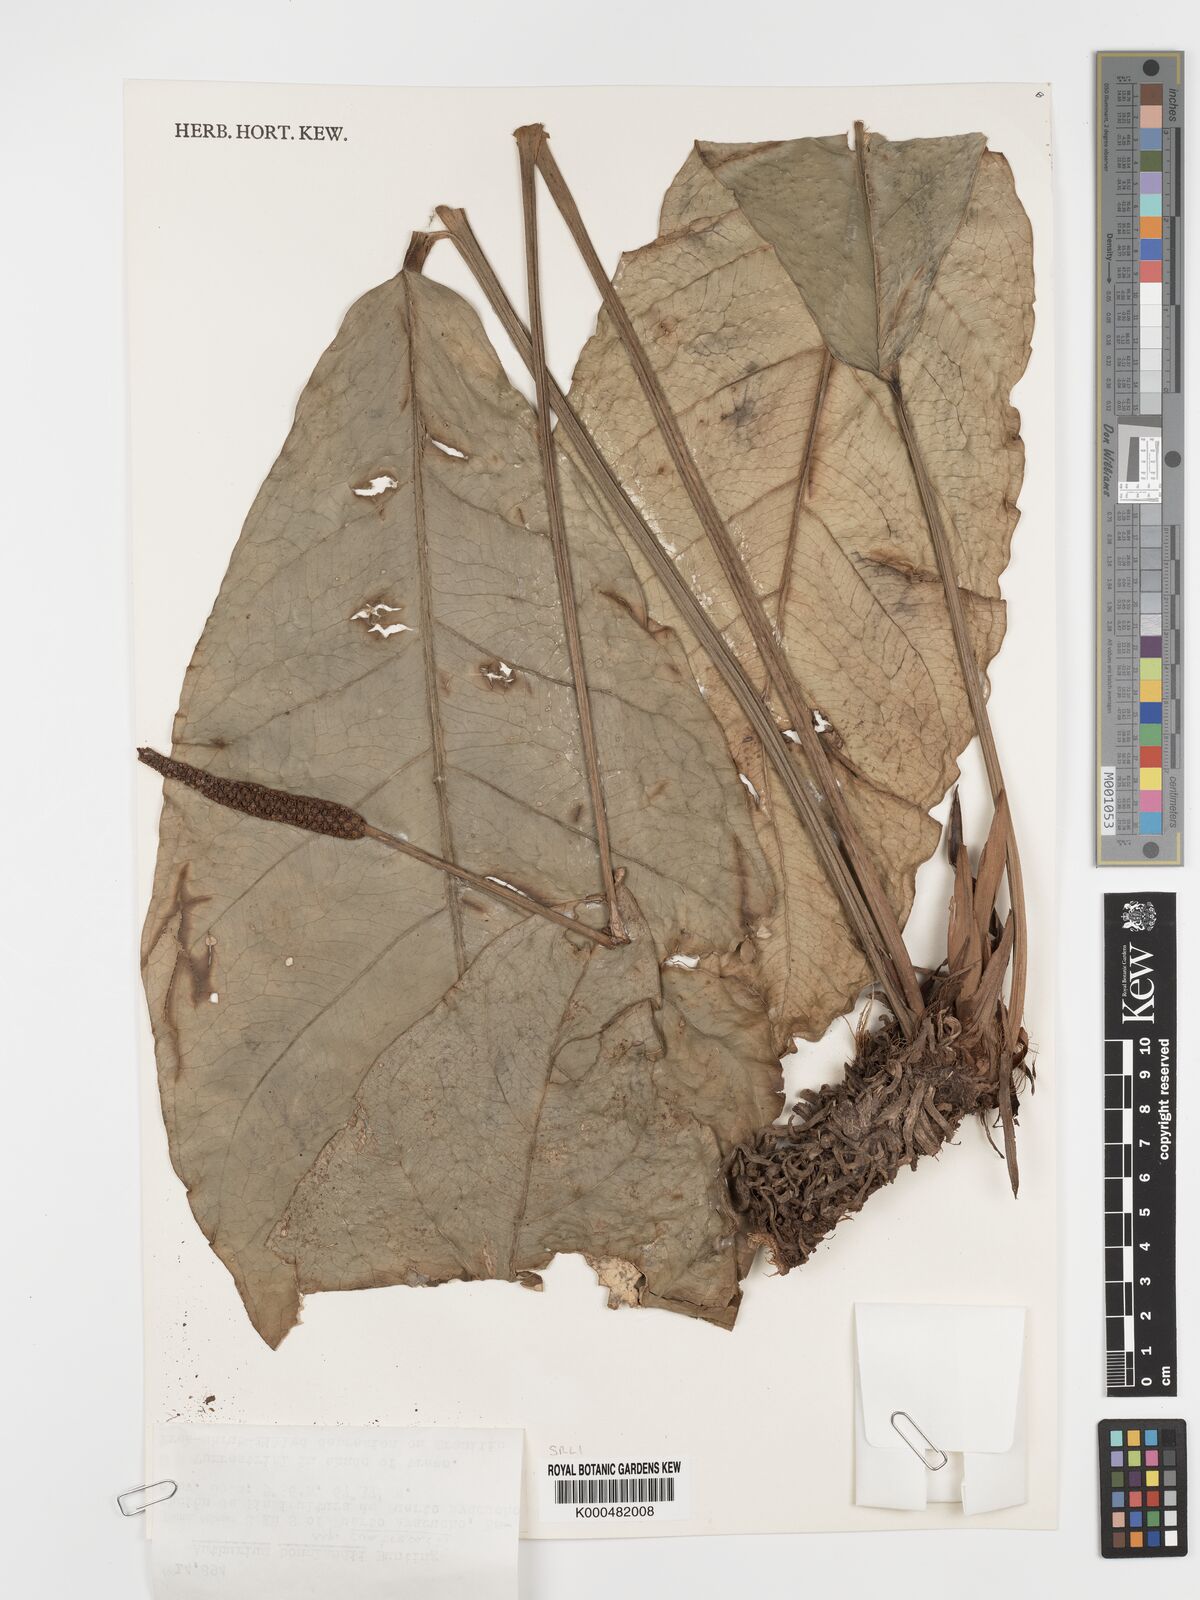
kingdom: Plantae
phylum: Tracheophyta
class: Liliopsida
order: Alismatales
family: Araceae
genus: Anthurium
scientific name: Anthurium
